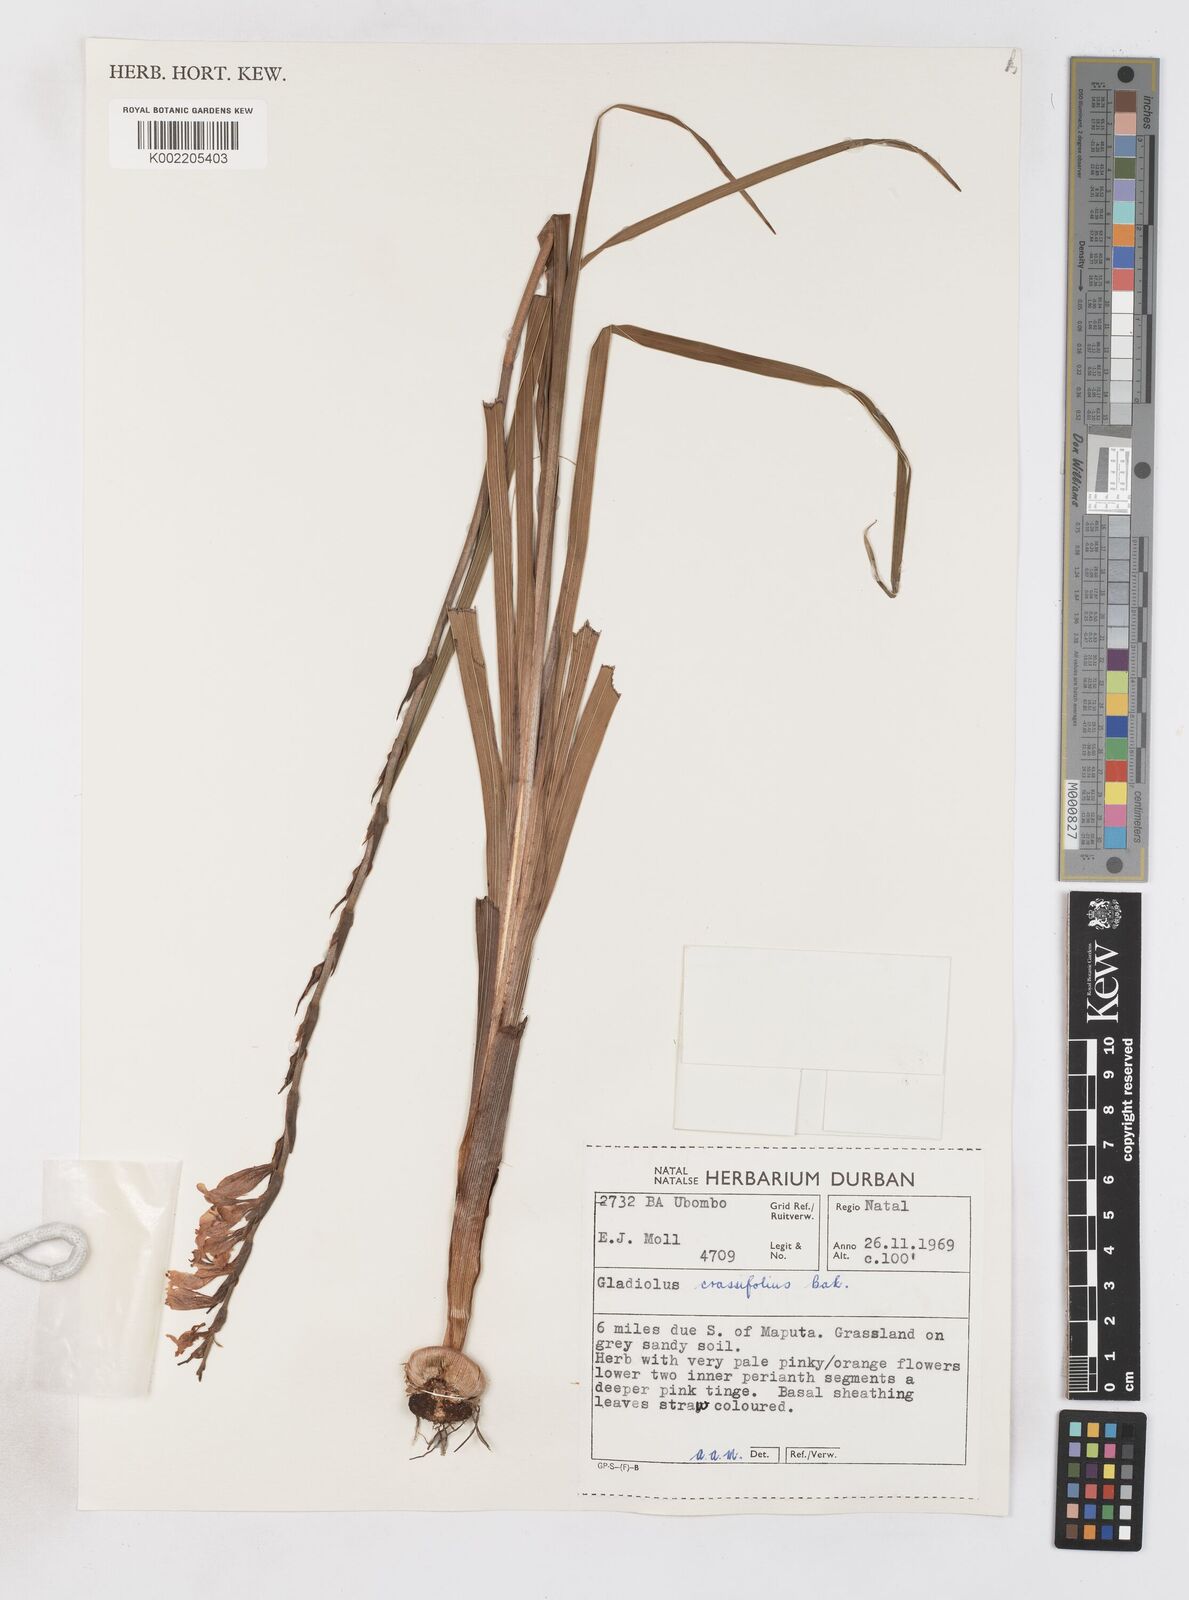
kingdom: Plantae
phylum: Tracheophyta
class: Liliopsida
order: Asparagales
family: Iridaceae
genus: Gladiolus
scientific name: Gladiolus densiflorus
